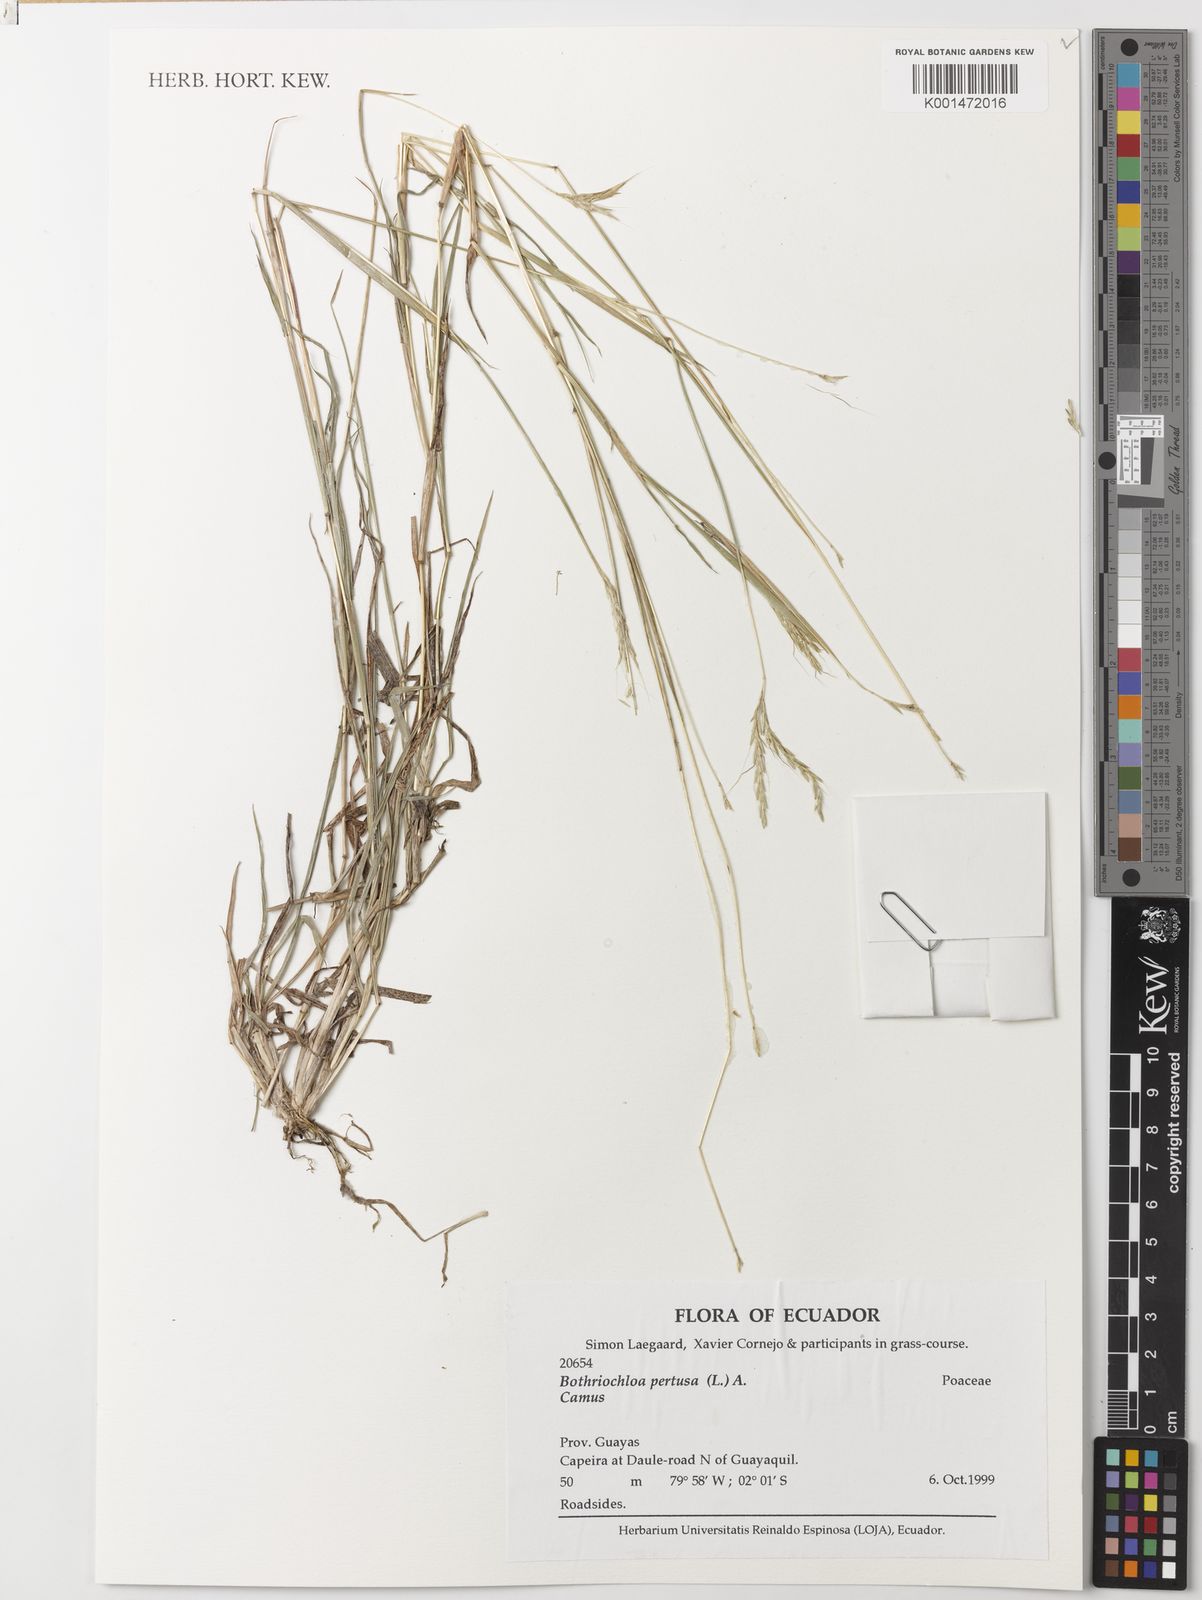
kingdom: Plantae
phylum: Tracheophyta
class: Liliopsida
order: Poales
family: Poaceae
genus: Bothriochloa
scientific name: Bothriochloa pertusa
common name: Pitted beardgrass
